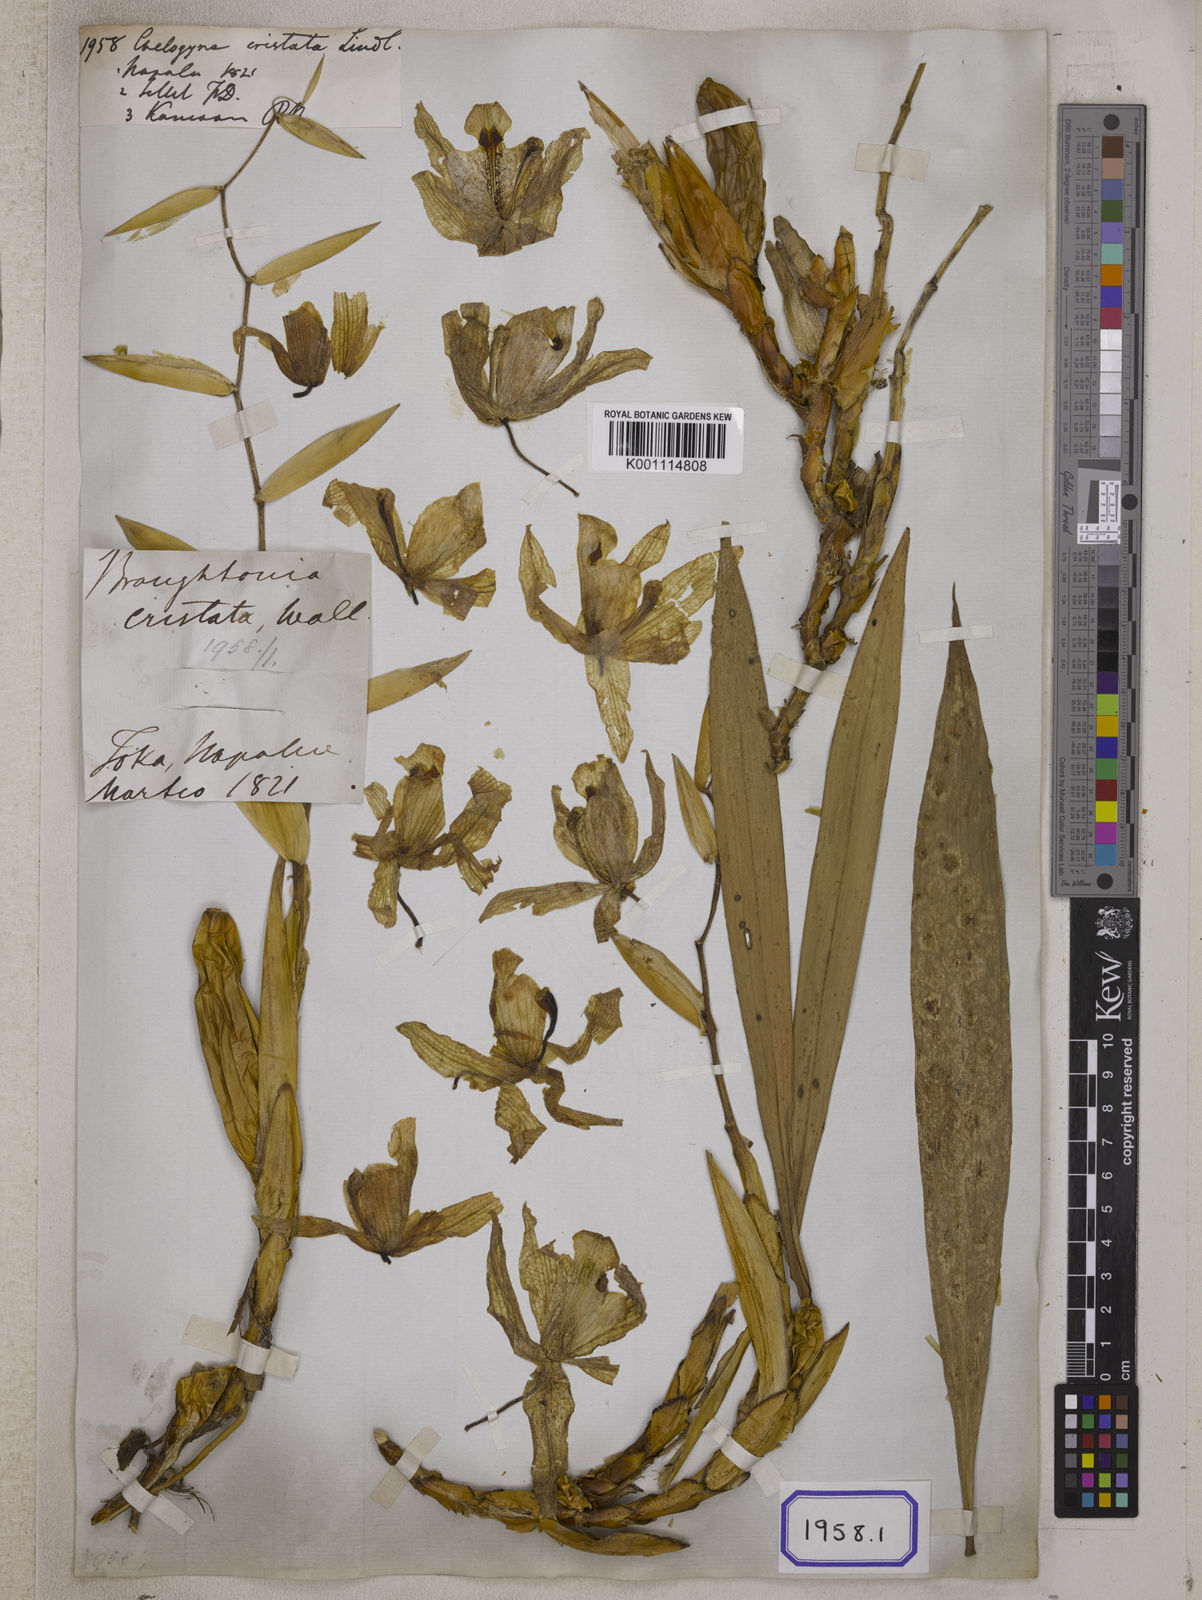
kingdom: Plantae
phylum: Tracheophyta
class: Liliopsida
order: Asparagales
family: Orchidaceae
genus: Coelogyne
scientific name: Coelogyne cristata
